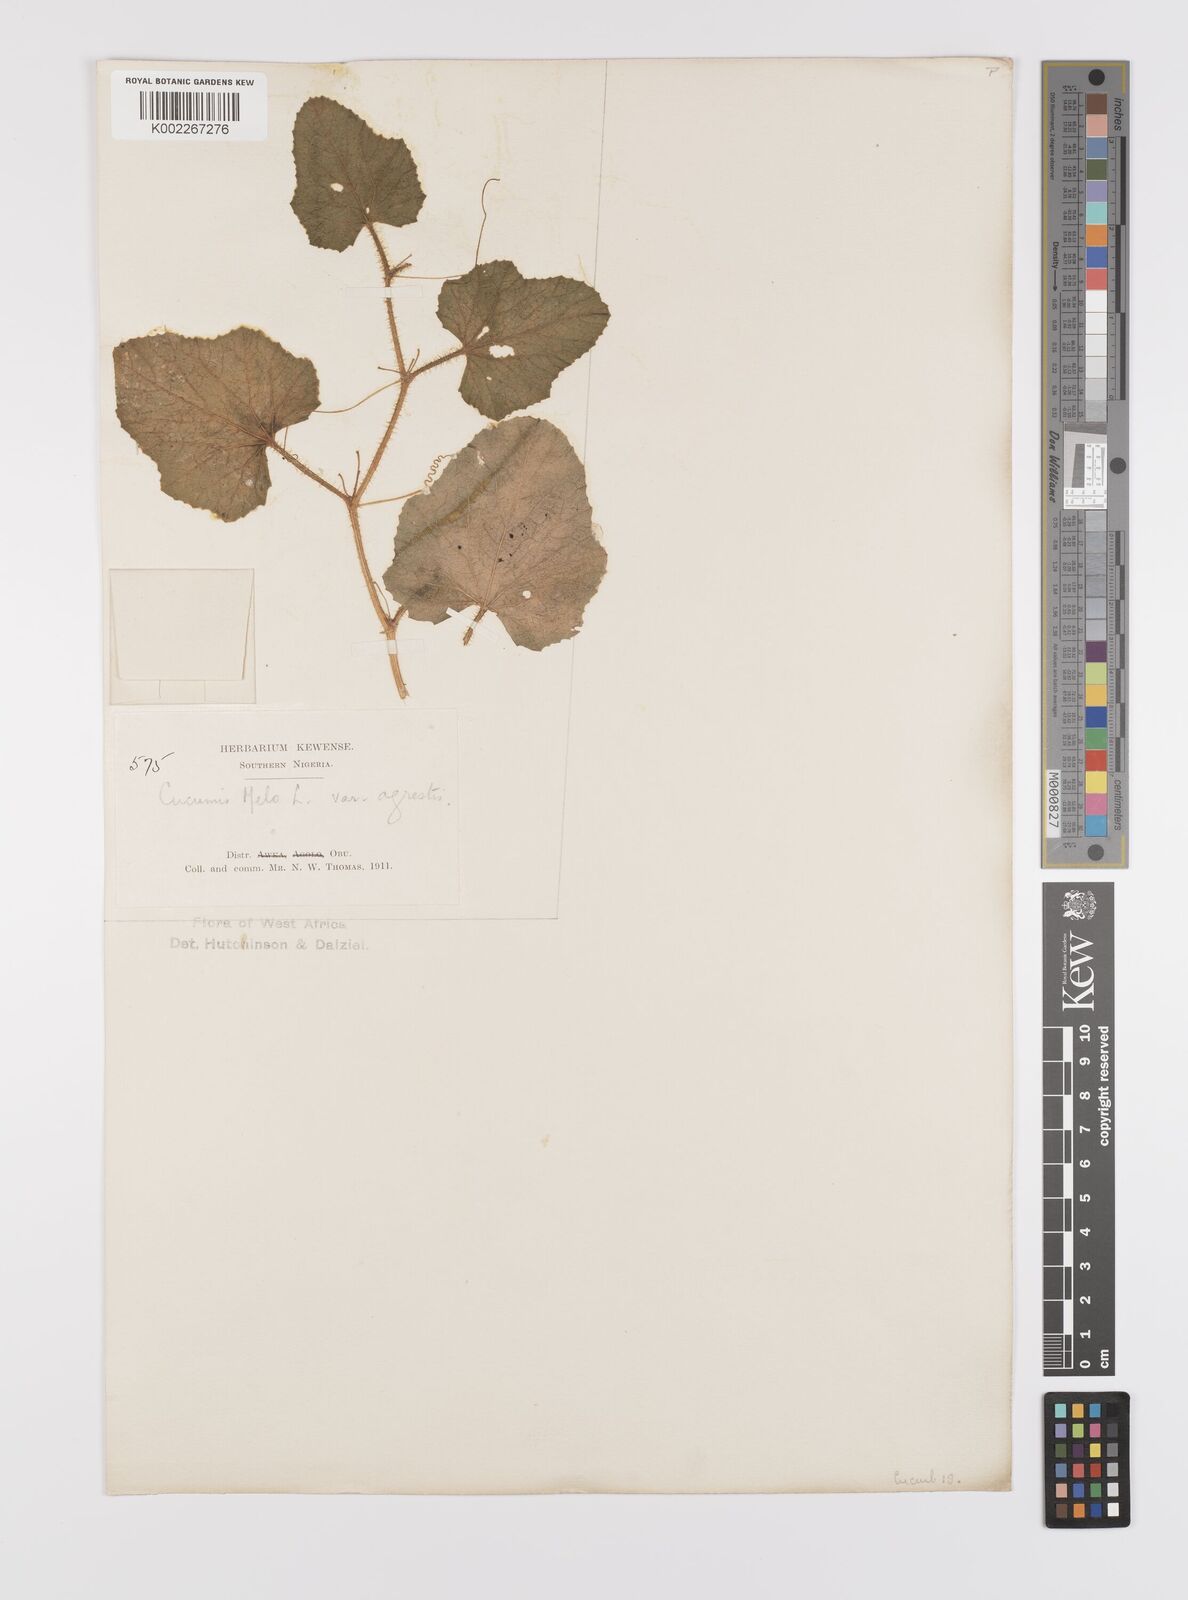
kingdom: Plantae
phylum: Tracheophyta
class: Magnoliopsida
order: Cucurbitales
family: Cucurbitaceae
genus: Cucumis
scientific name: Cucumis melo
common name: Melon
